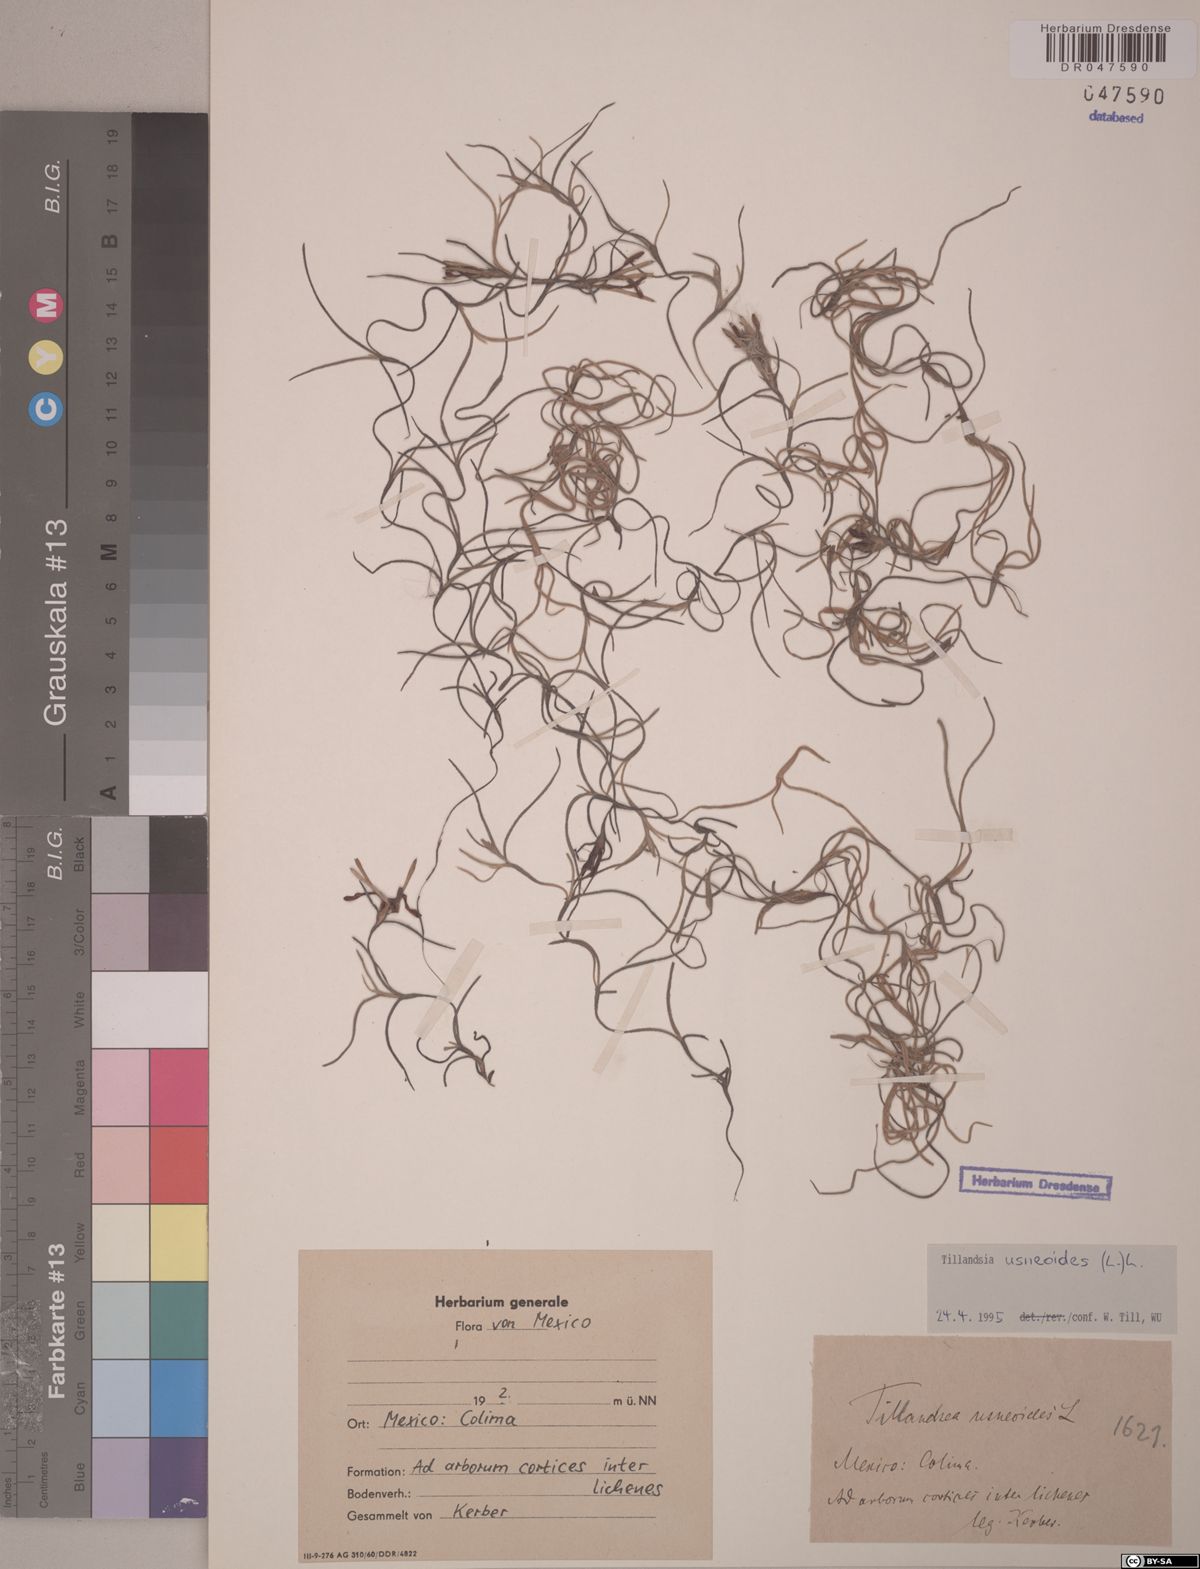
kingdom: Plantae
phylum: Tracheophyta
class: Liliopsida
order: Poales
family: Bromeliaceae
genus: Tillandsia
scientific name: Tillandsia usneoides
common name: Spanish moss
